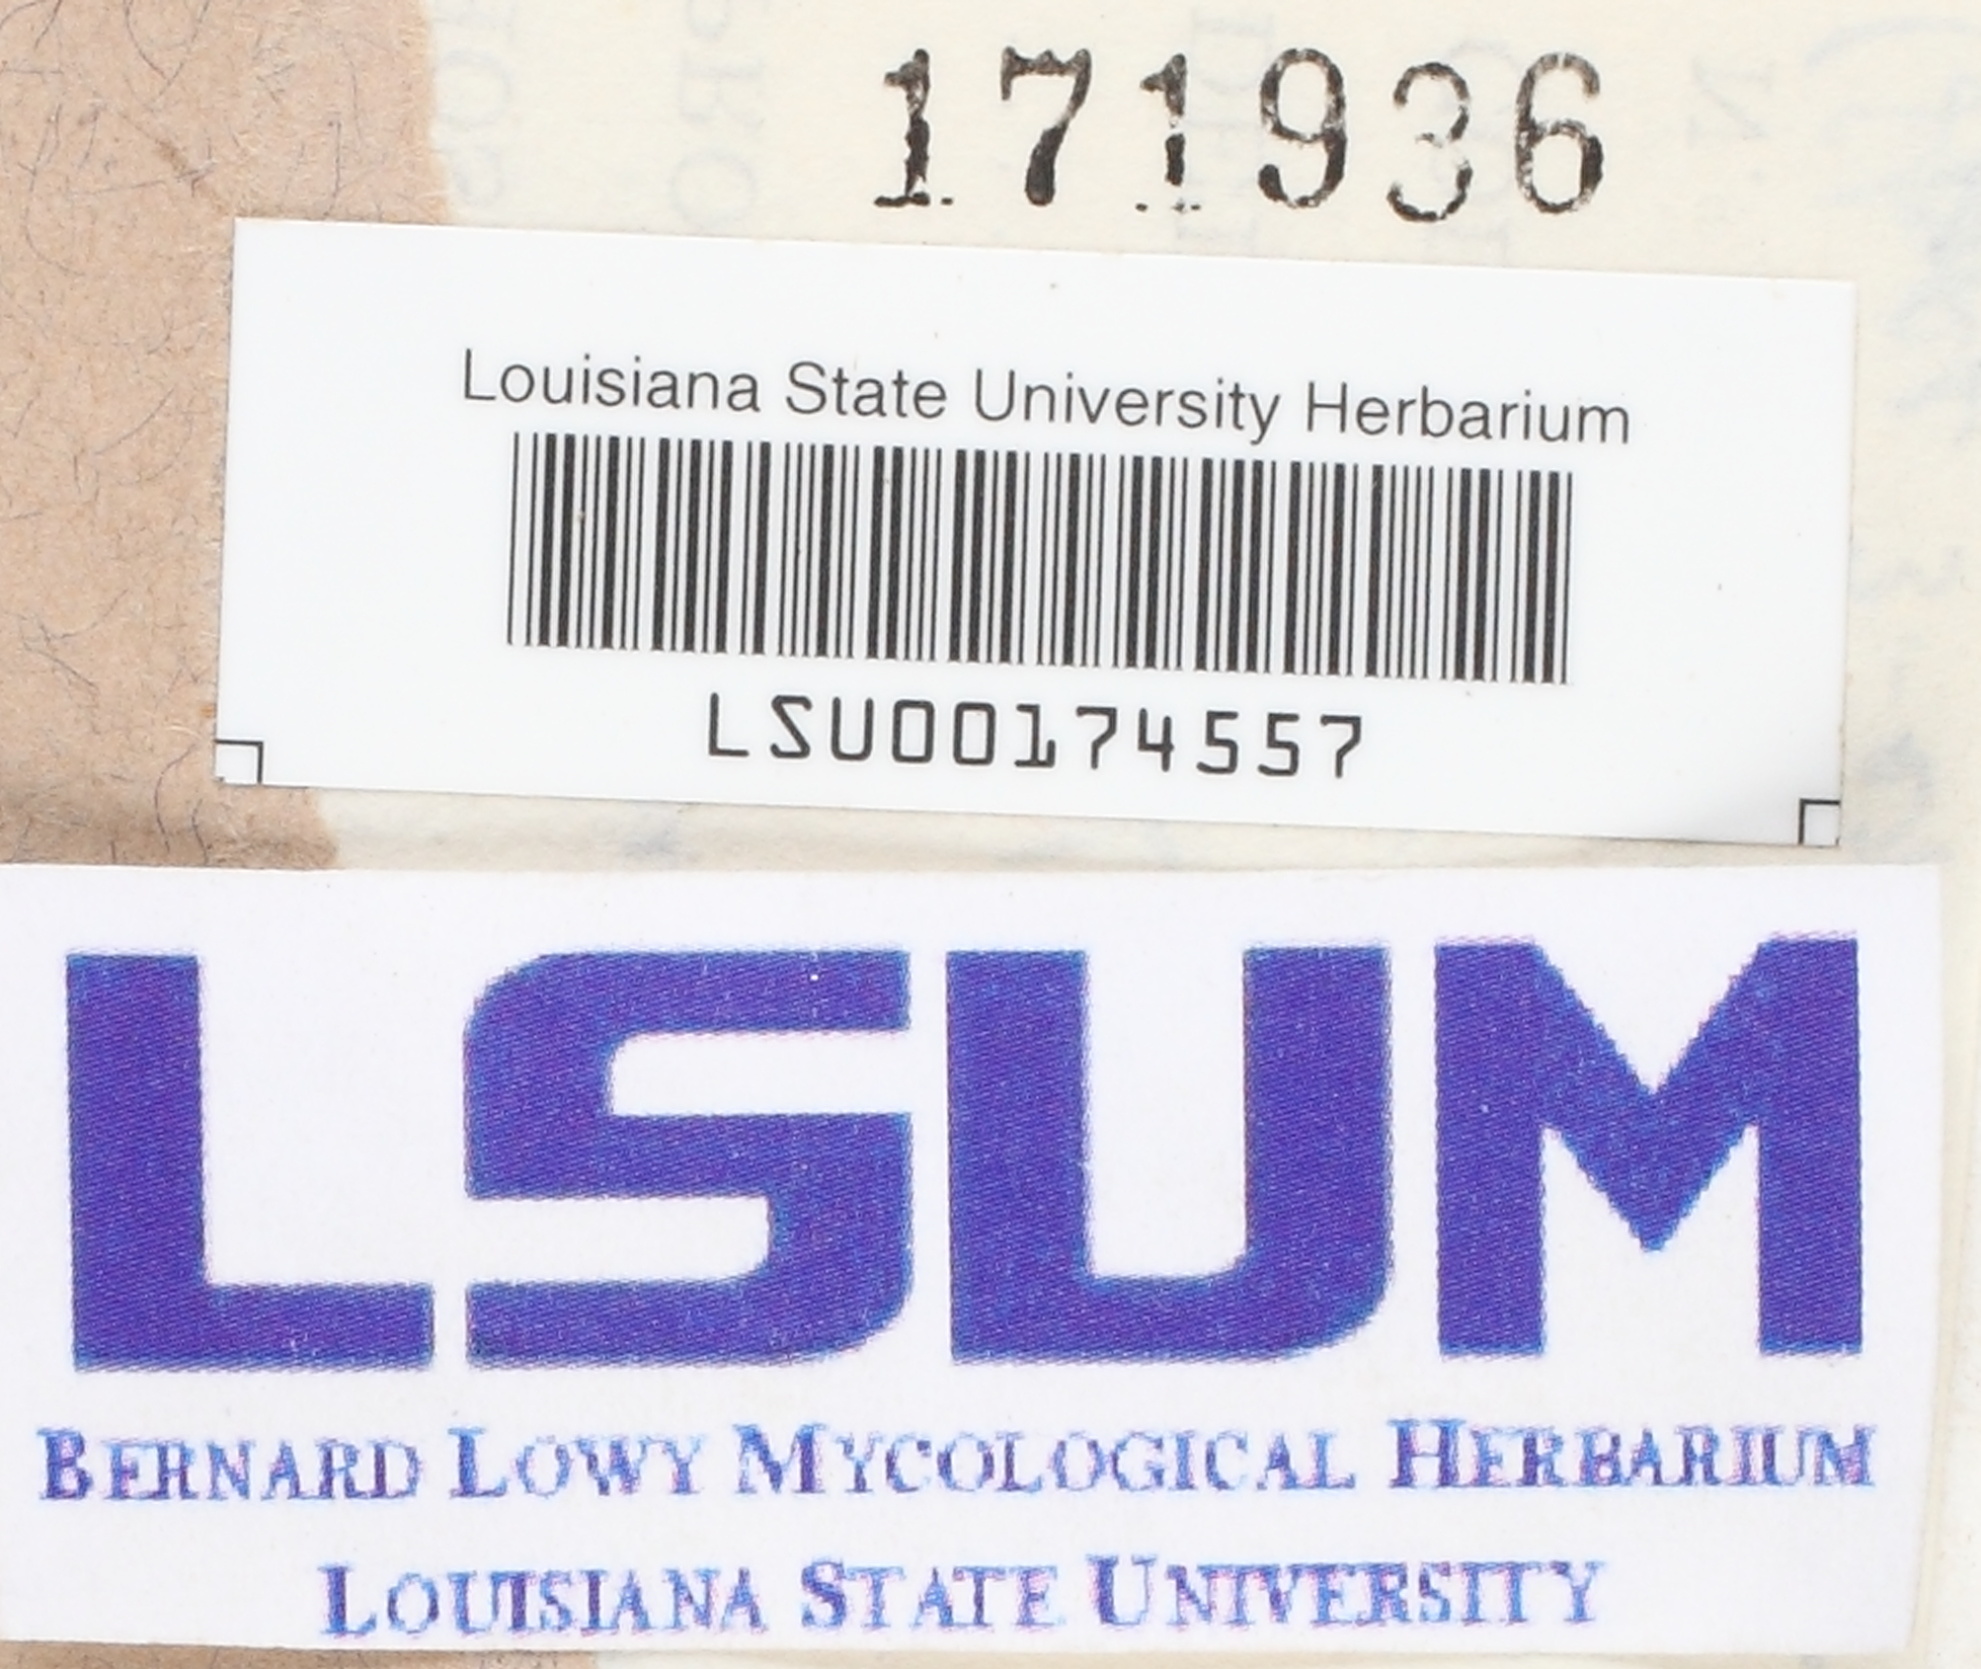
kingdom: Fungi
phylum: Basidiomycota
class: Dacrymycetes
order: Dacrymycetales
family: Dacrymycetaceae
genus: Dacryopinax
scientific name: Dacryopinax elegans
